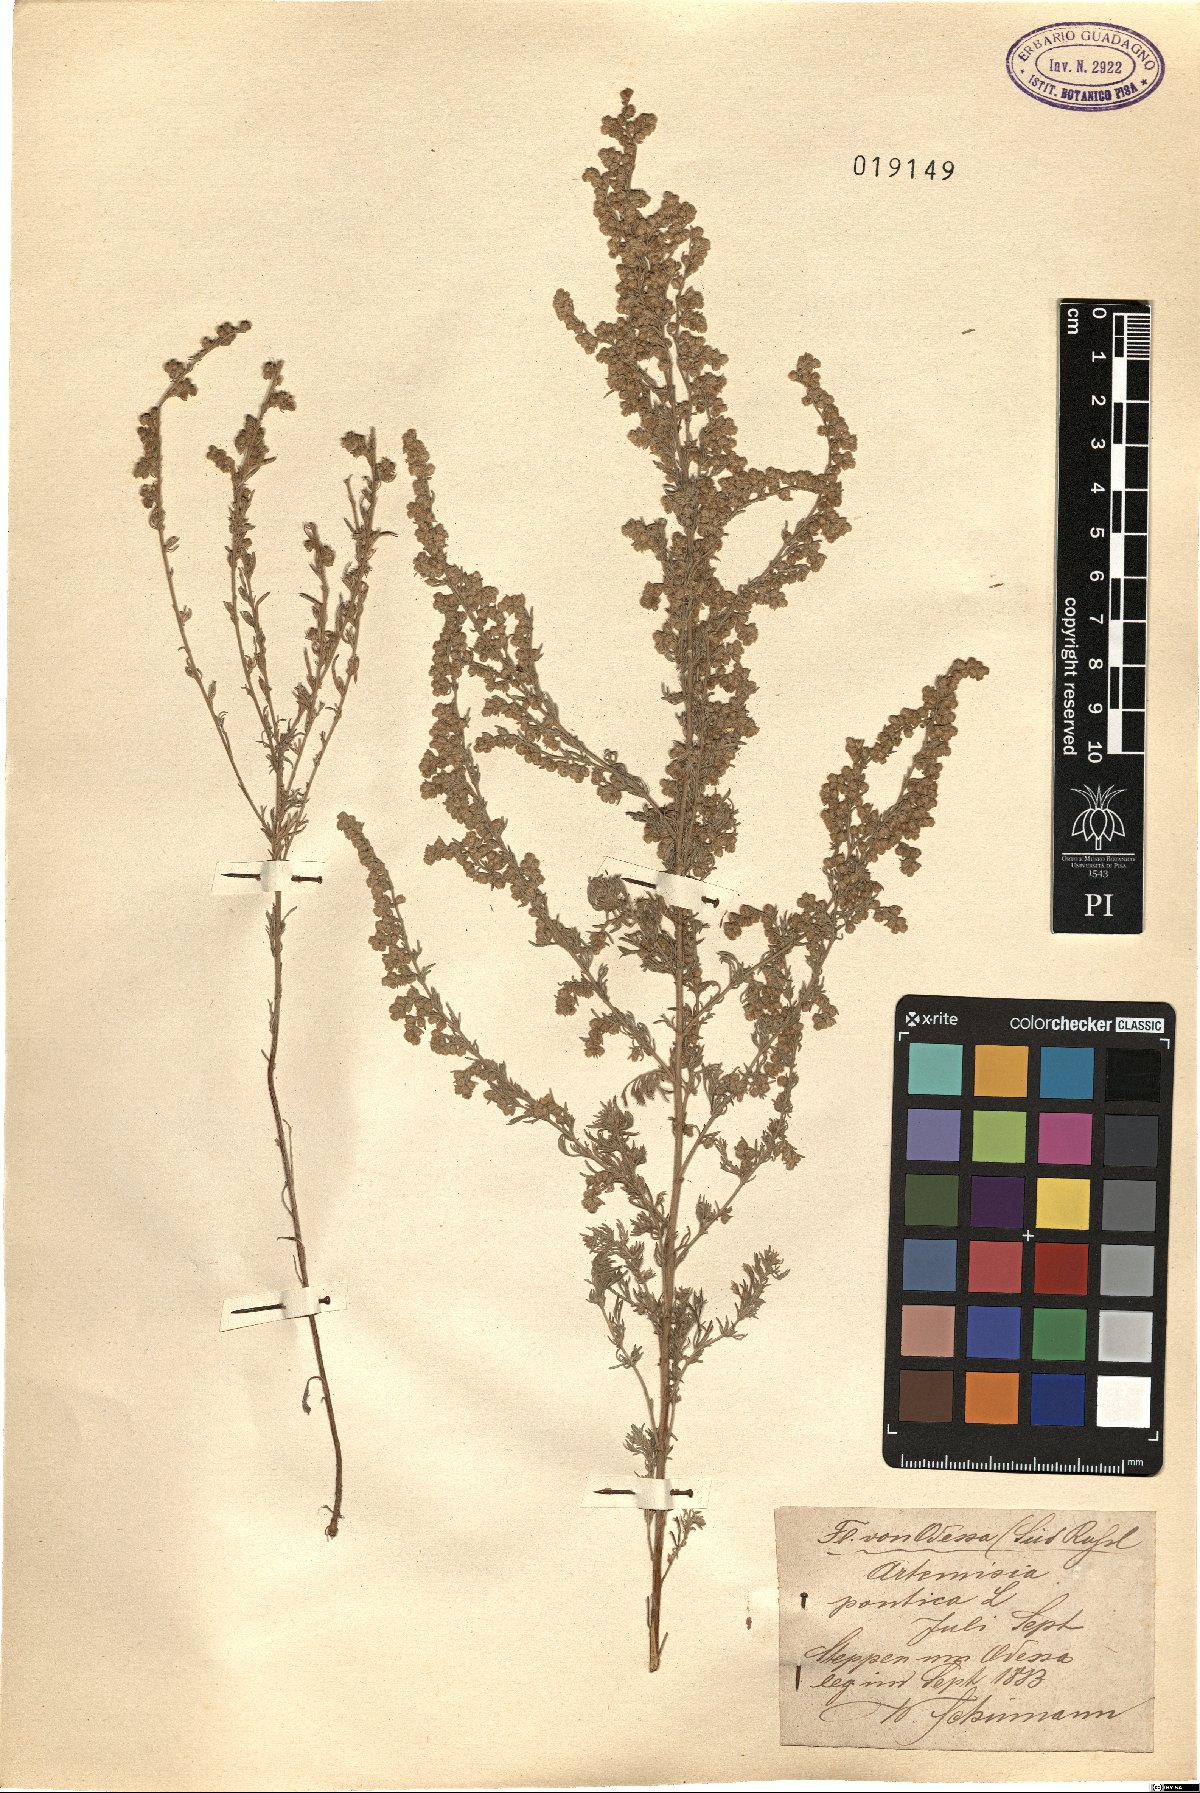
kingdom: Plantae
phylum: Tracheophyta
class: Magnoliopsida
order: Asterales
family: Asteraceae
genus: Artemisia
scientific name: Artemisia pontica
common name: Roman wormwood
